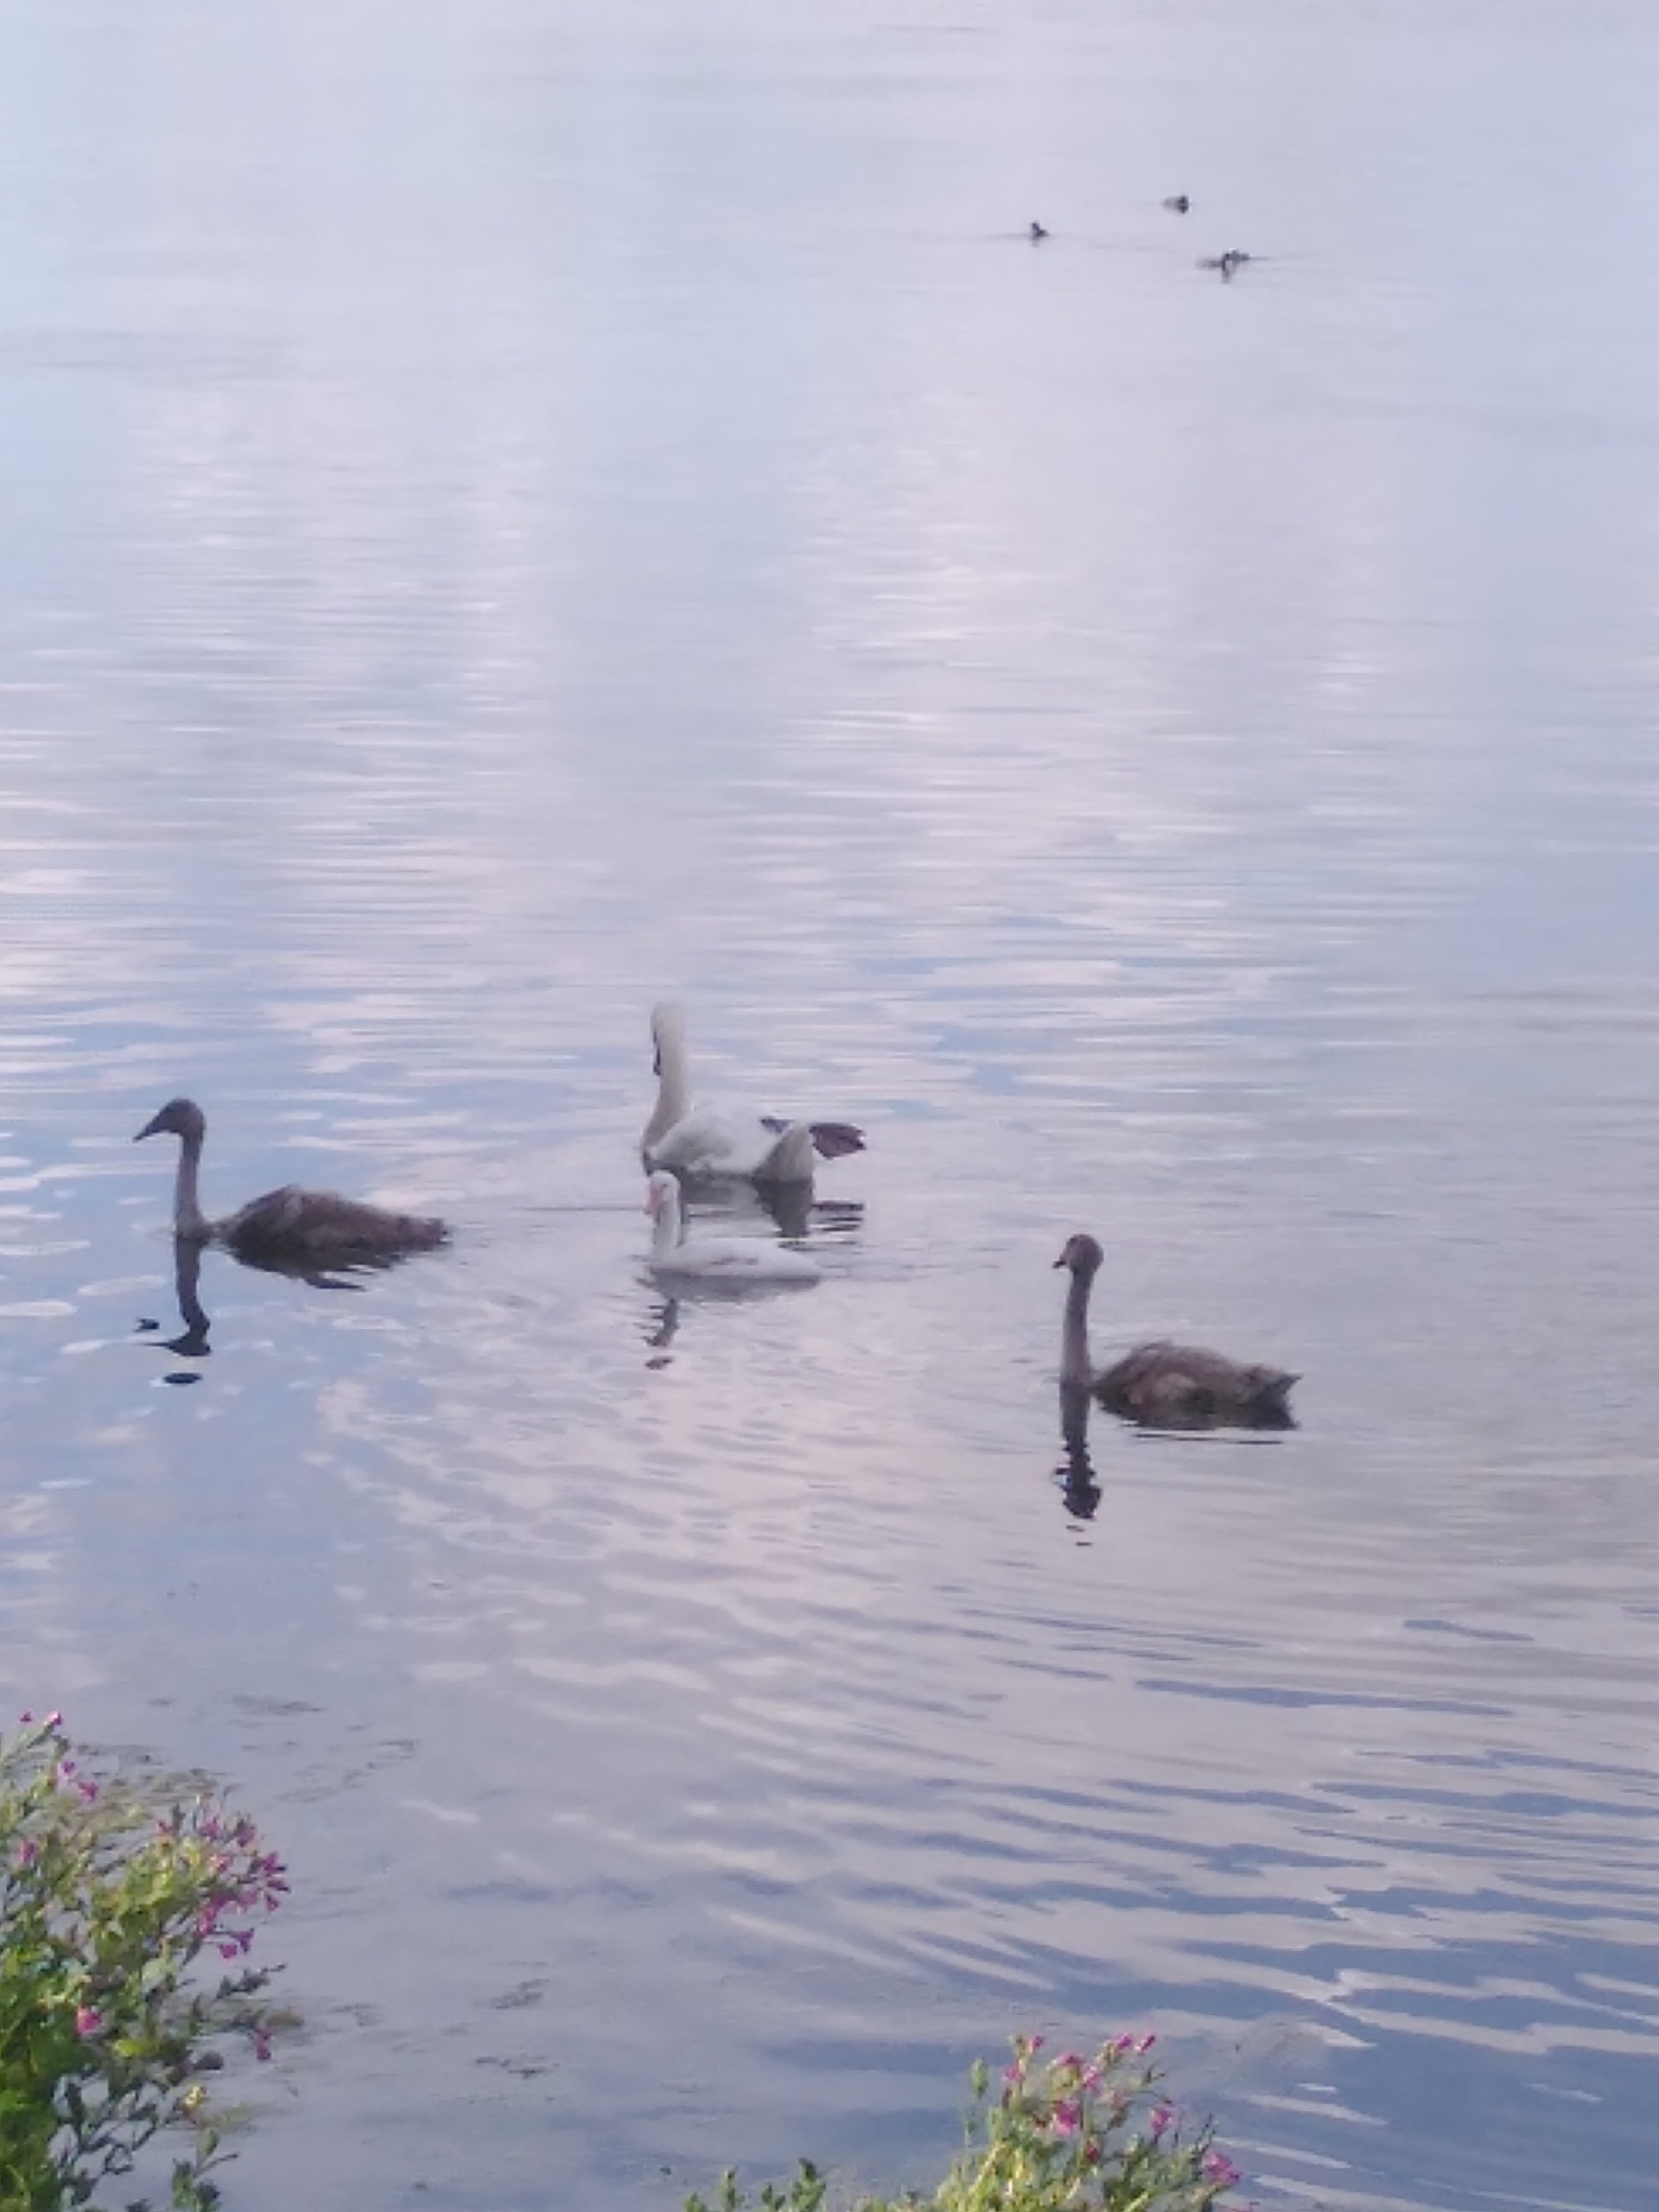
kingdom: Animalia
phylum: Chordata
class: Aves
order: Anseriformes
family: Anatidae
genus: Cygnus
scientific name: Cygnus olor
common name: Knopsvane
